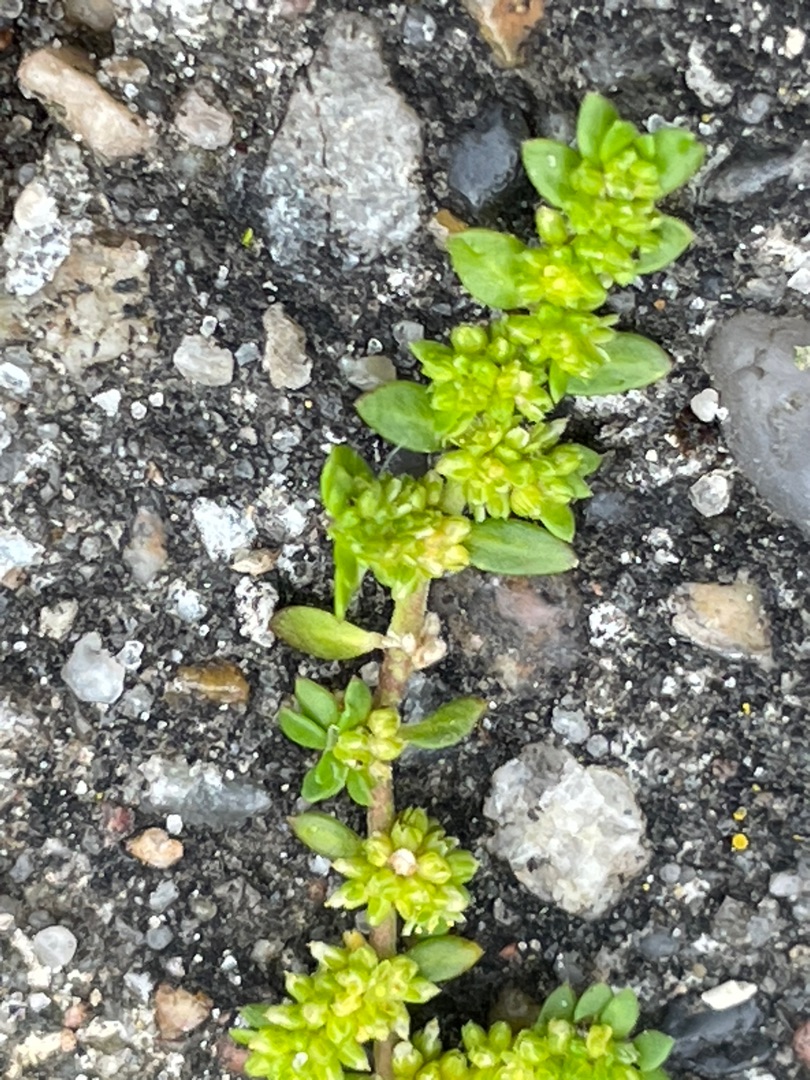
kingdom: Plantae
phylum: Tracheophyta
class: Magnoliopsida
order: Caryophyllales
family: Caryophyllaceae
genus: Herniaria
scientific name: Herniaria glabra
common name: Brudurt
